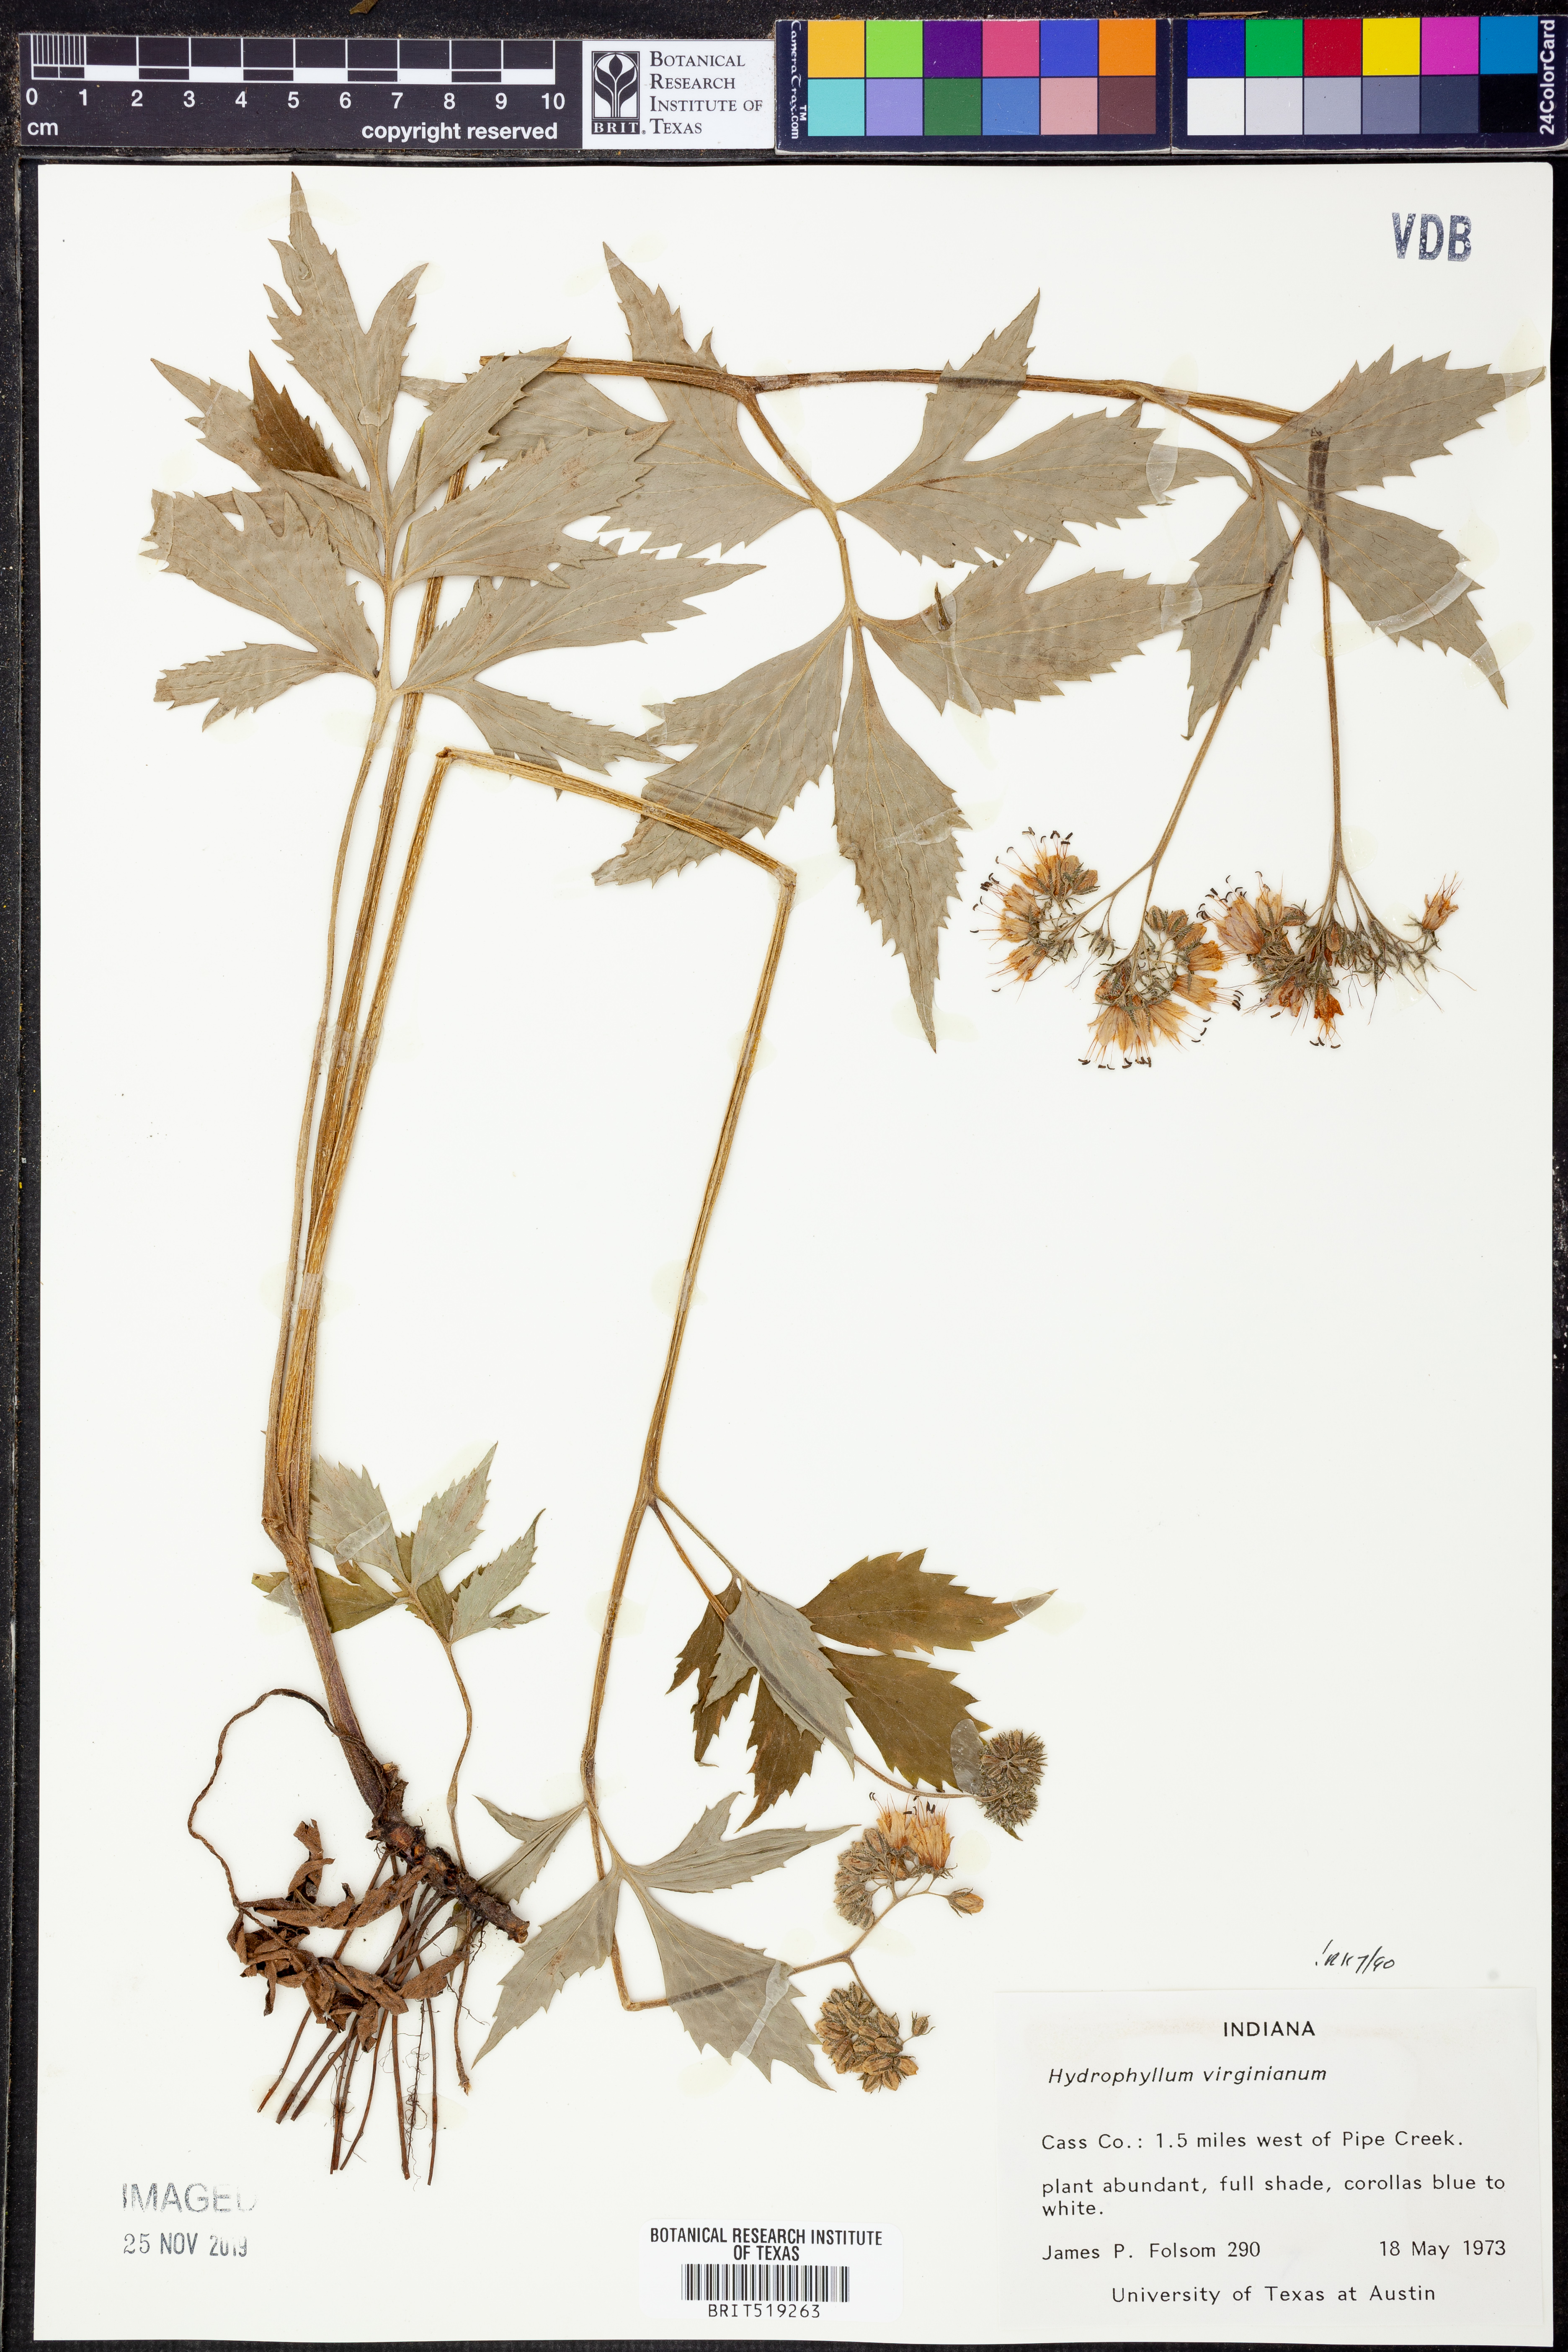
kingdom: Plantae
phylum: Tracheophyta
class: Magnoliopsida
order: Boraginales
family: Hydrophyllaceae
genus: Hydrophyllum
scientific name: Hydrophyllum virginianum
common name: Virginia waterleaf
